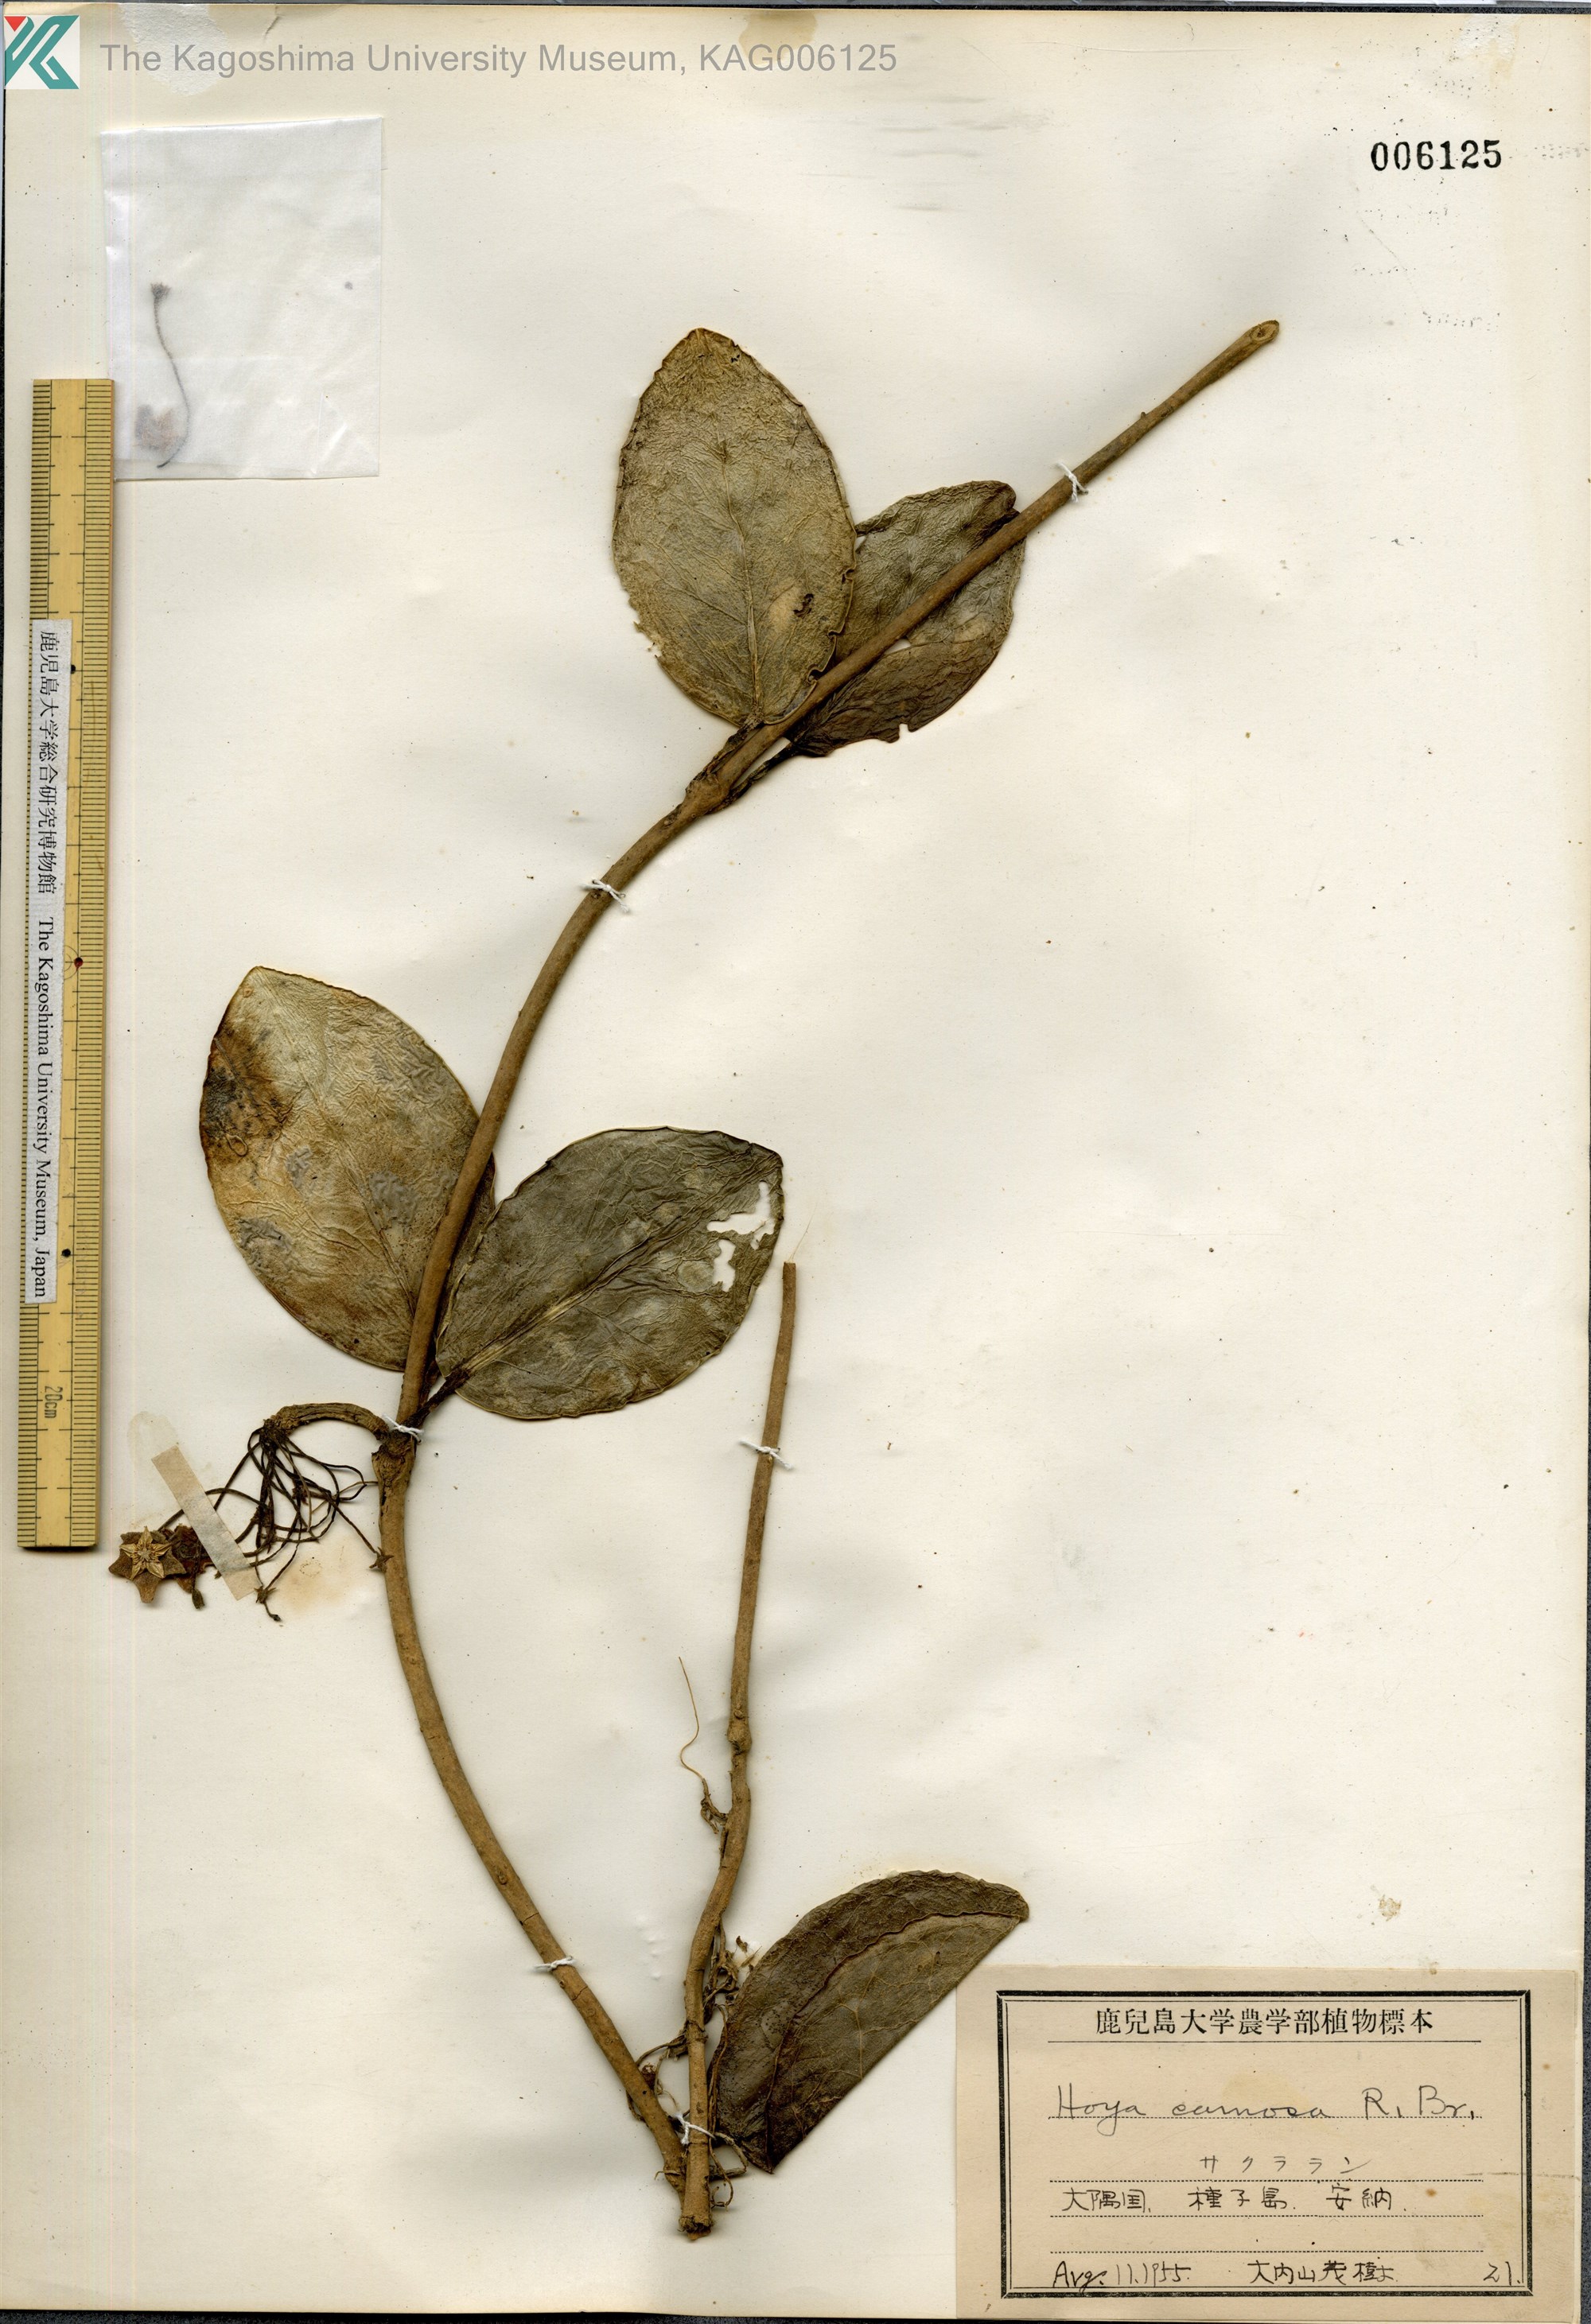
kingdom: Plantae
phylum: Tracheophyta
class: Magnoliopsida
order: Gentianales
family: Apocynaceae
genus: Hoya
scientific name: Hoya carnosa
